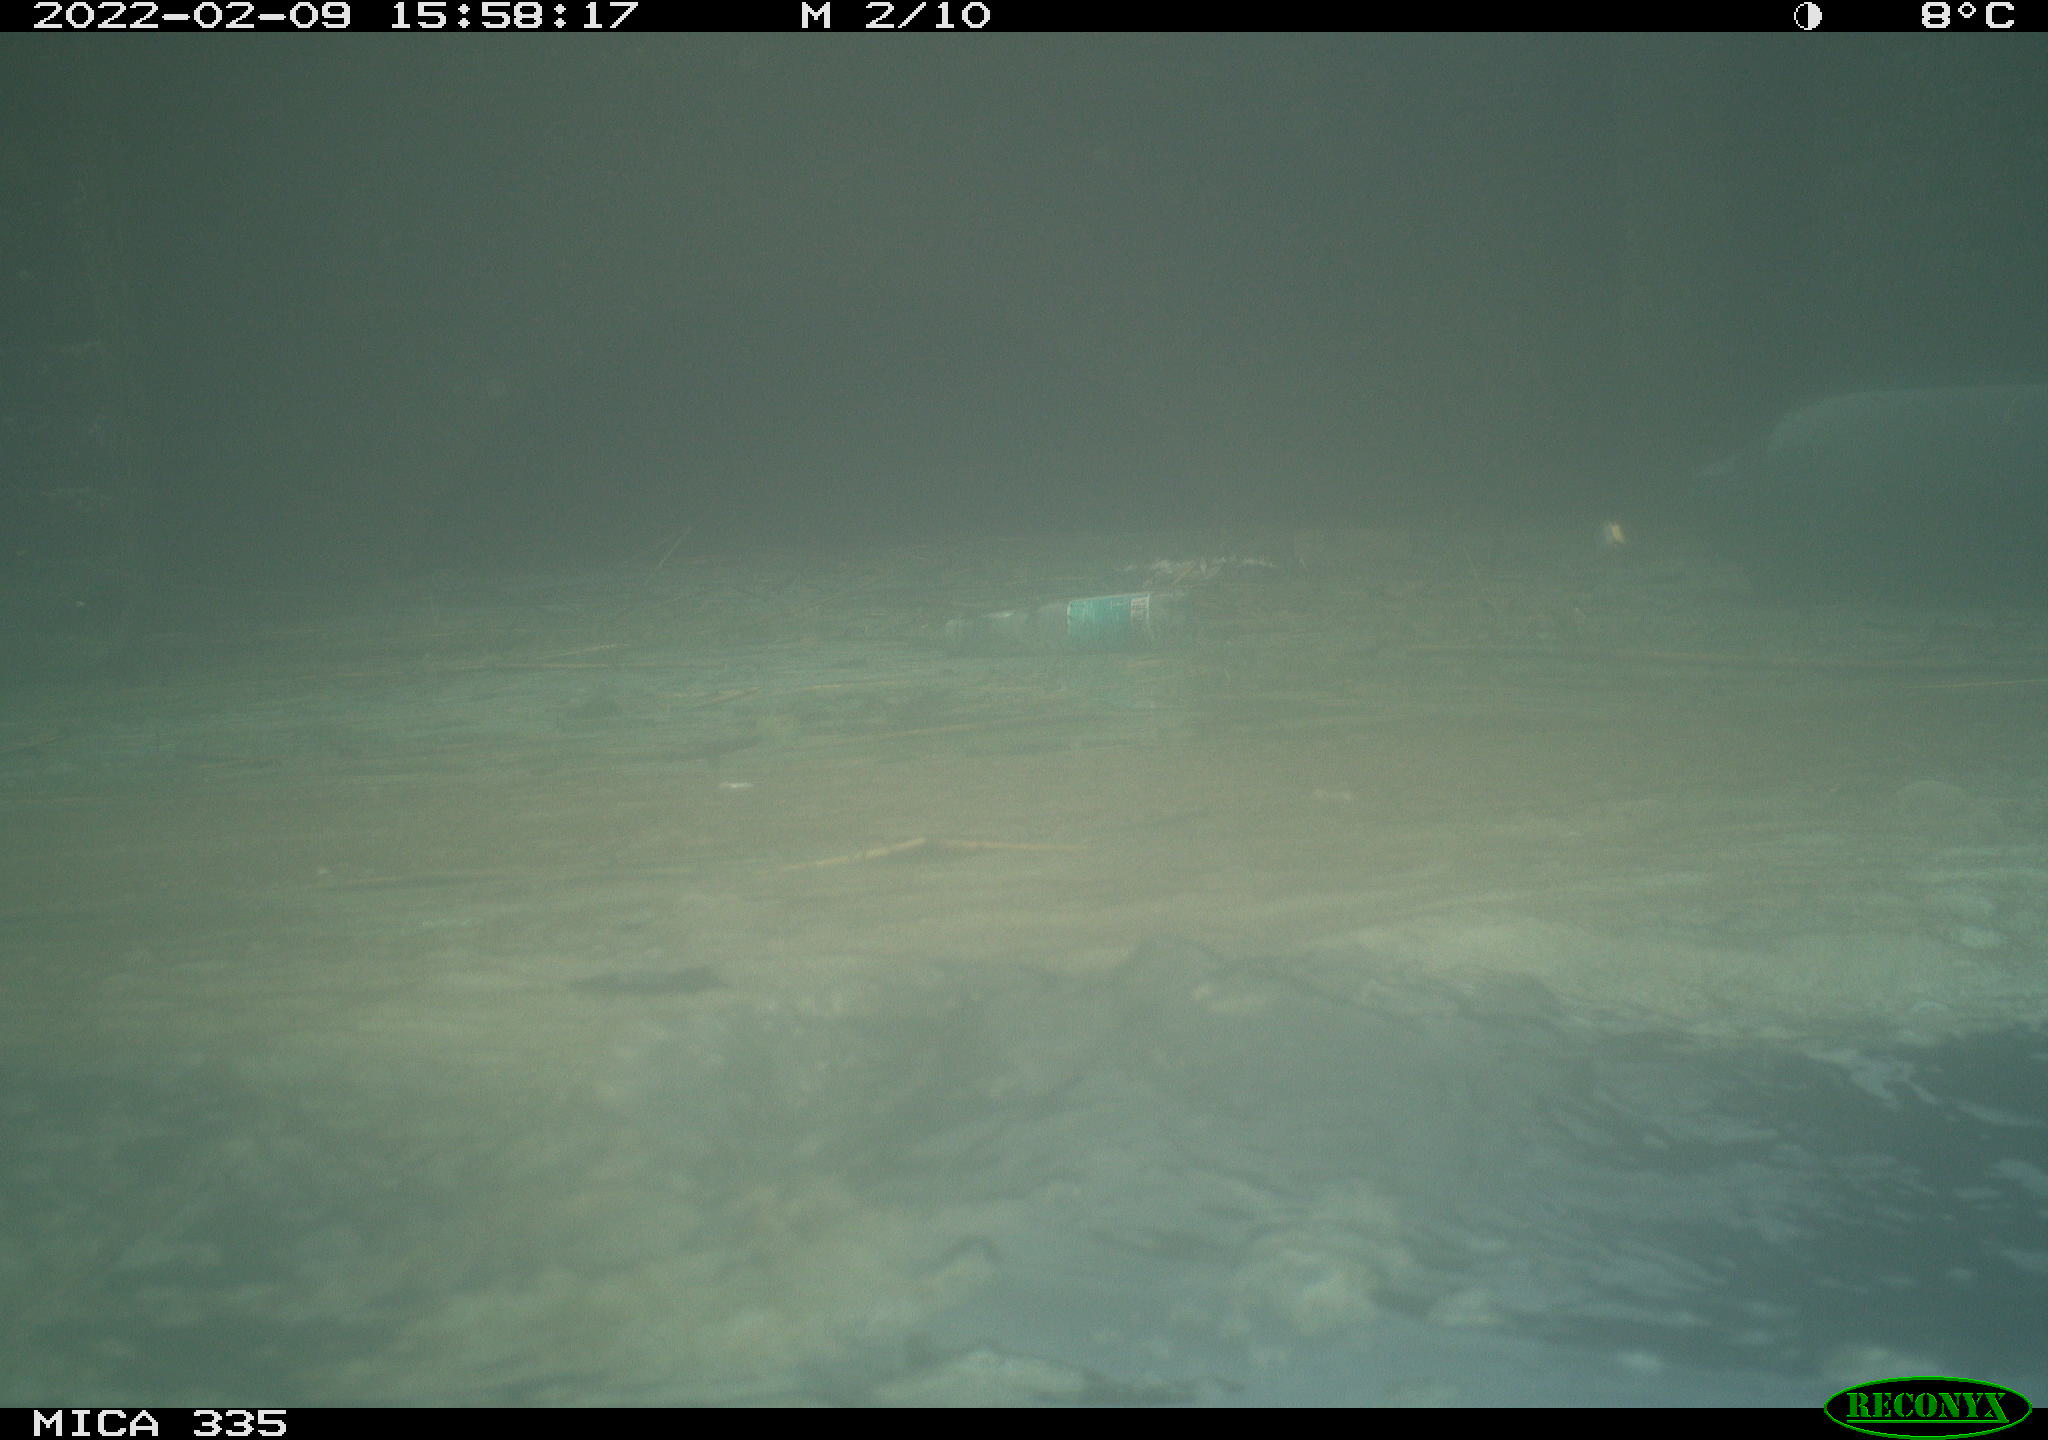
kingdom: Animalia
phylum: Chordata
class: Aves
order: Suliformes
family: Phalacrocoracidae
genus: Phalacrocorax
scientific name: Phalacrocorax carbo
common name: Great cormorant
